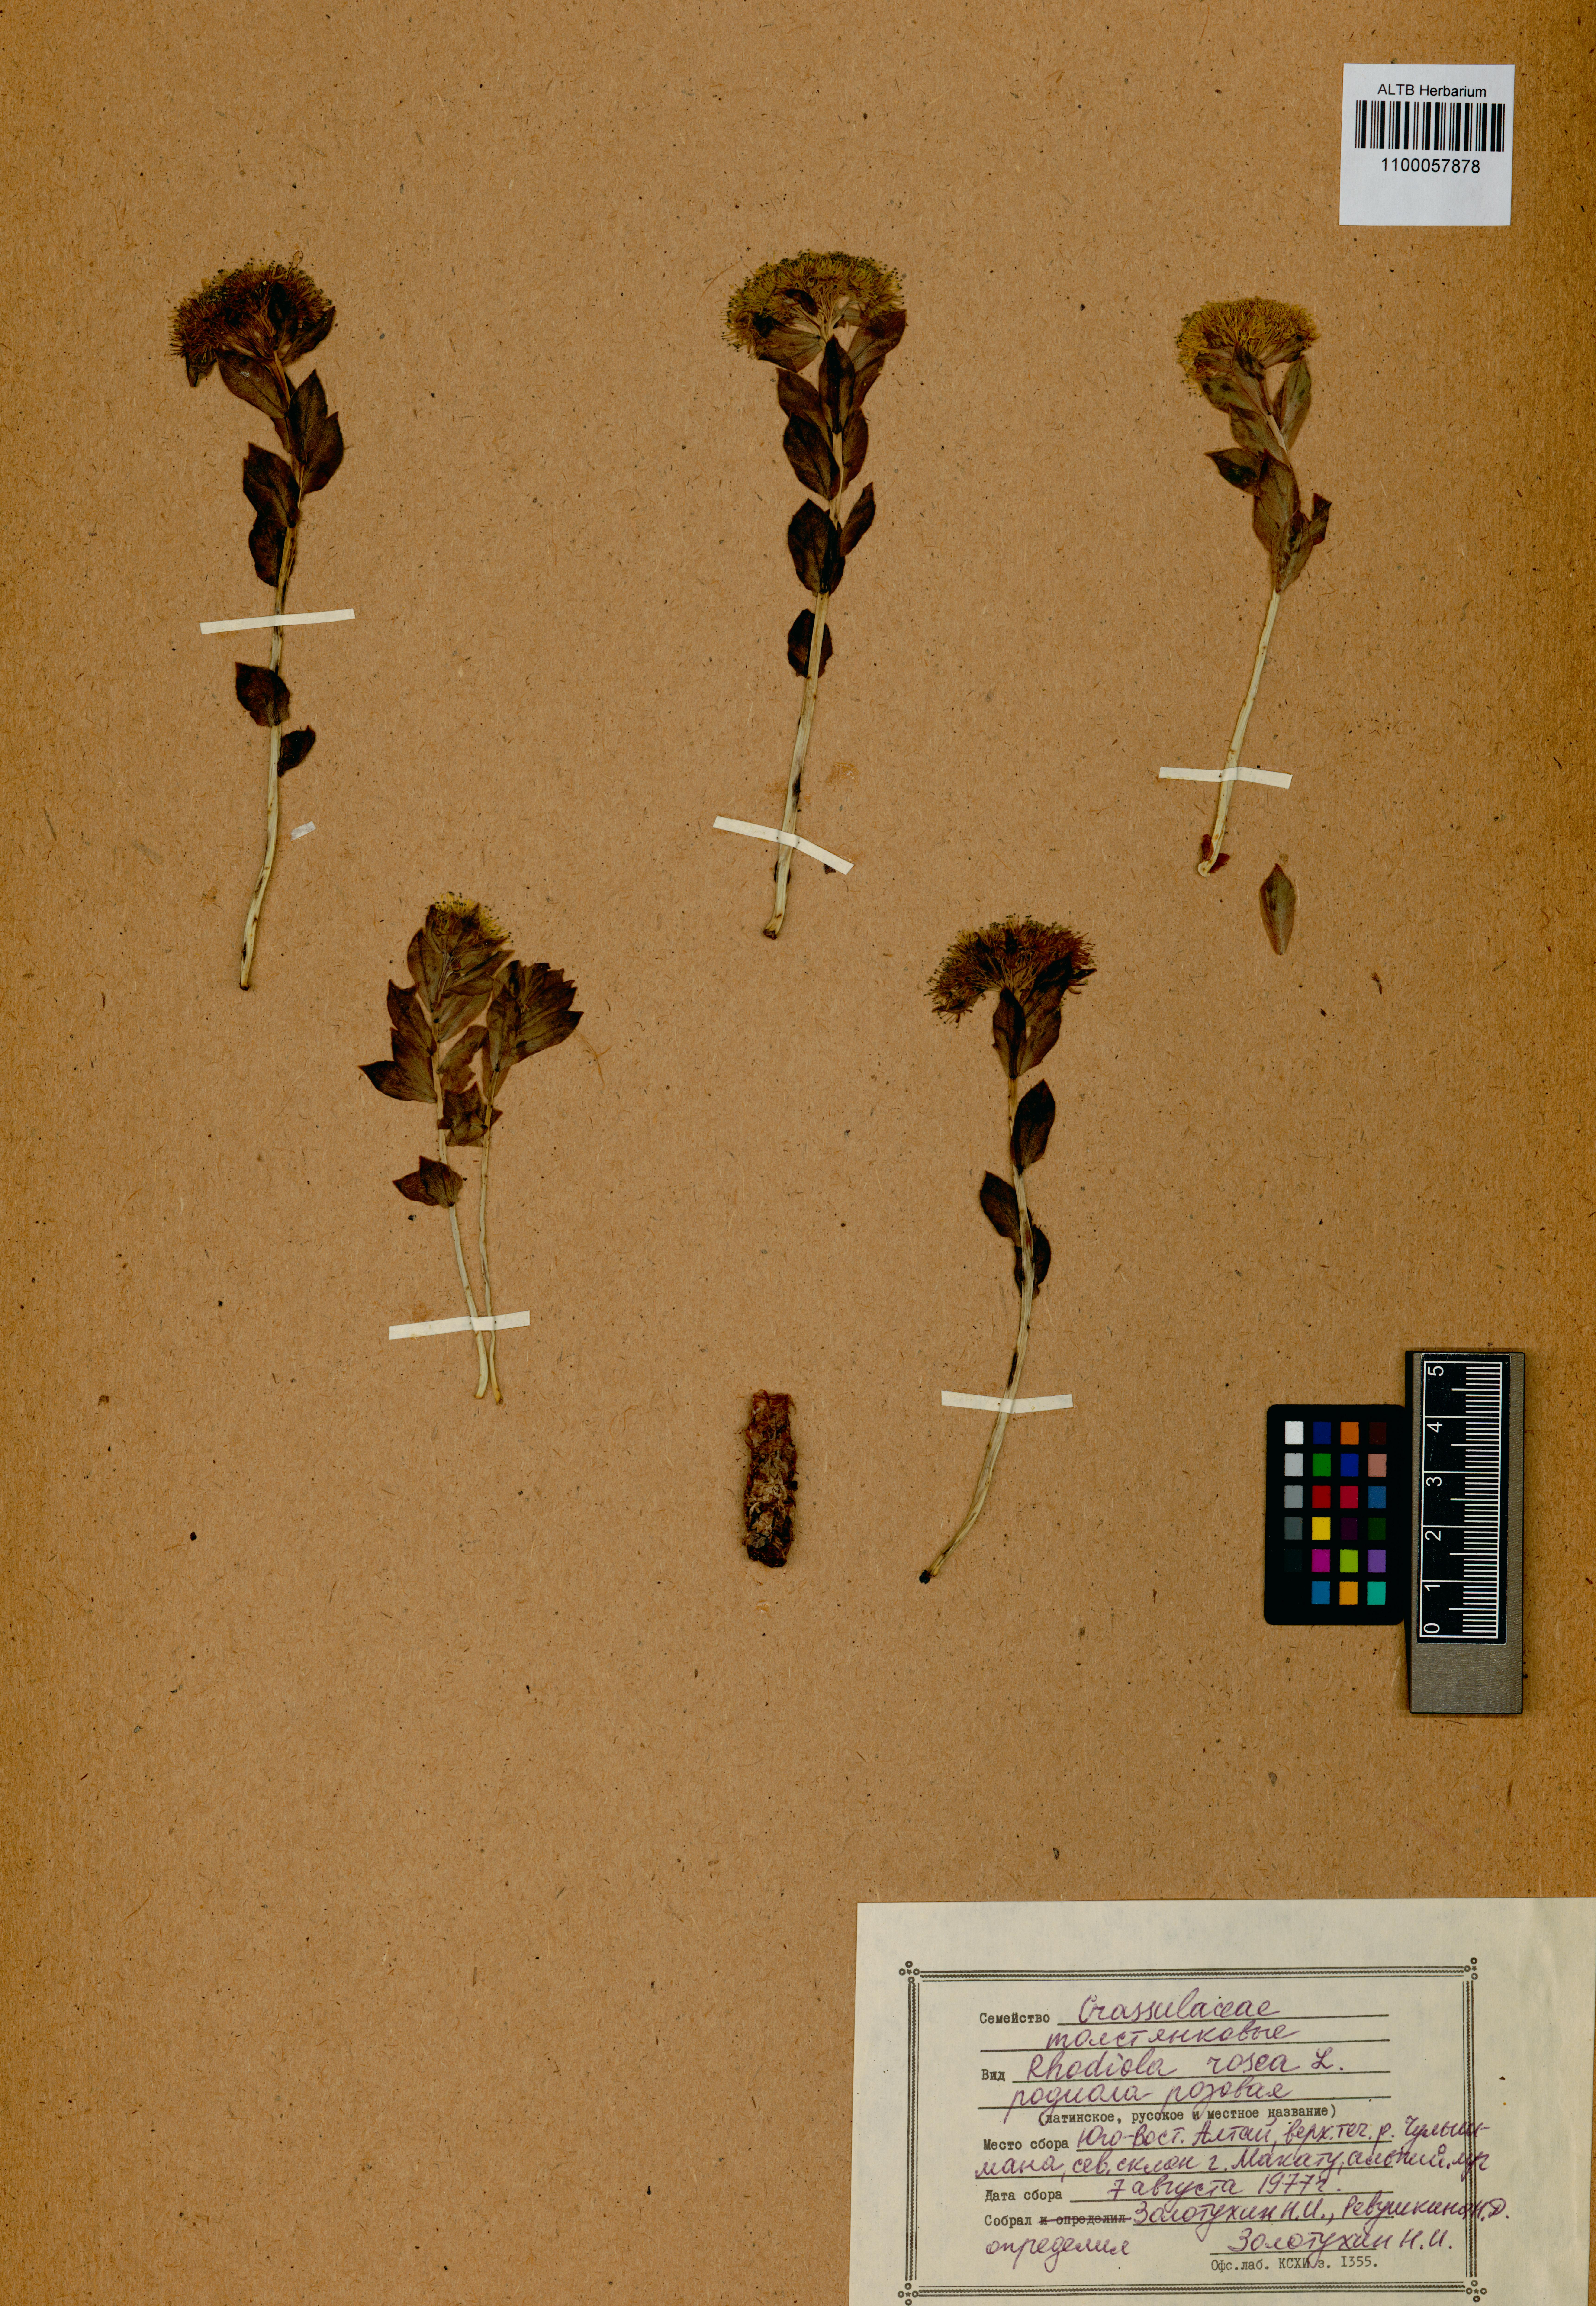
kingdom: Plantae
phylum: Tracheophyta
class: Magnoliopsida
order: Saxifragales
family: Crassulaceae
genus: Rhodiola
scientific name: Rhodiola rosea
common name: Roseroot
